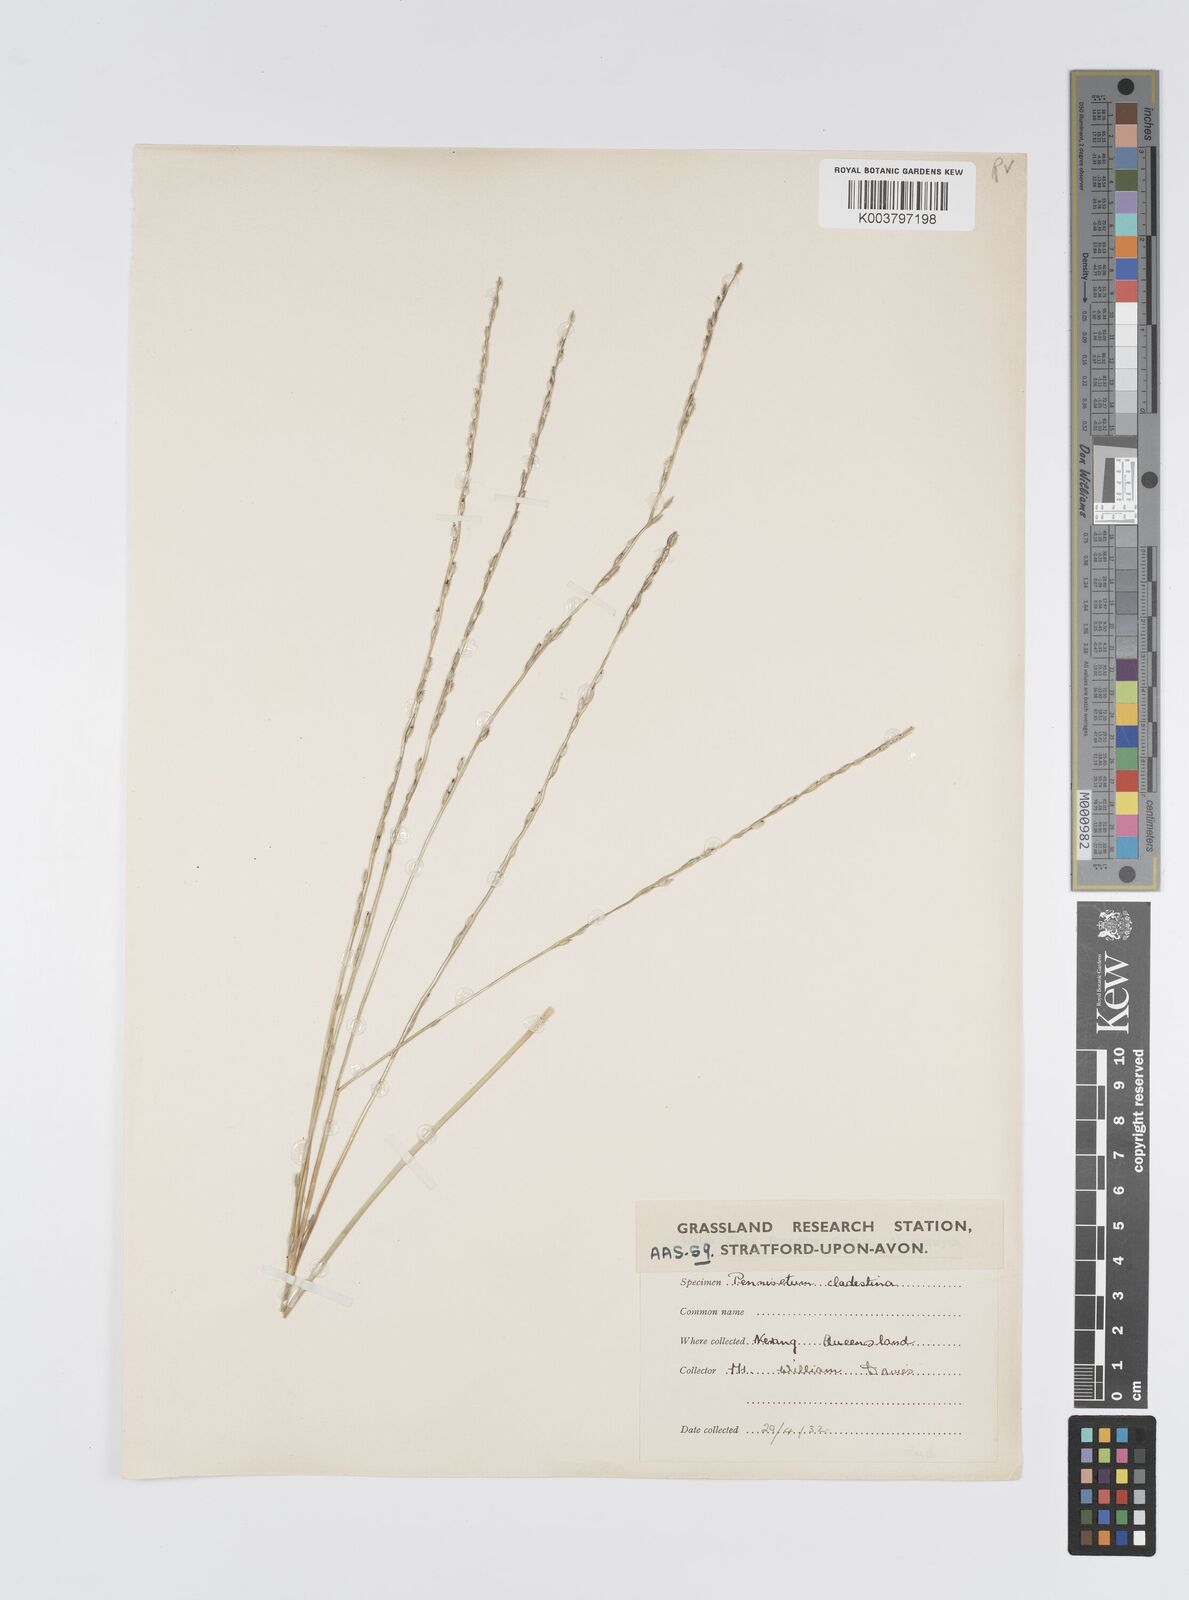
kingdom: Plantae
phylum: Tracheophyta
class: Liliopsida
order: Poales
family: Poaceae
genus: Digitaria
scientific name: Digitaria spec
